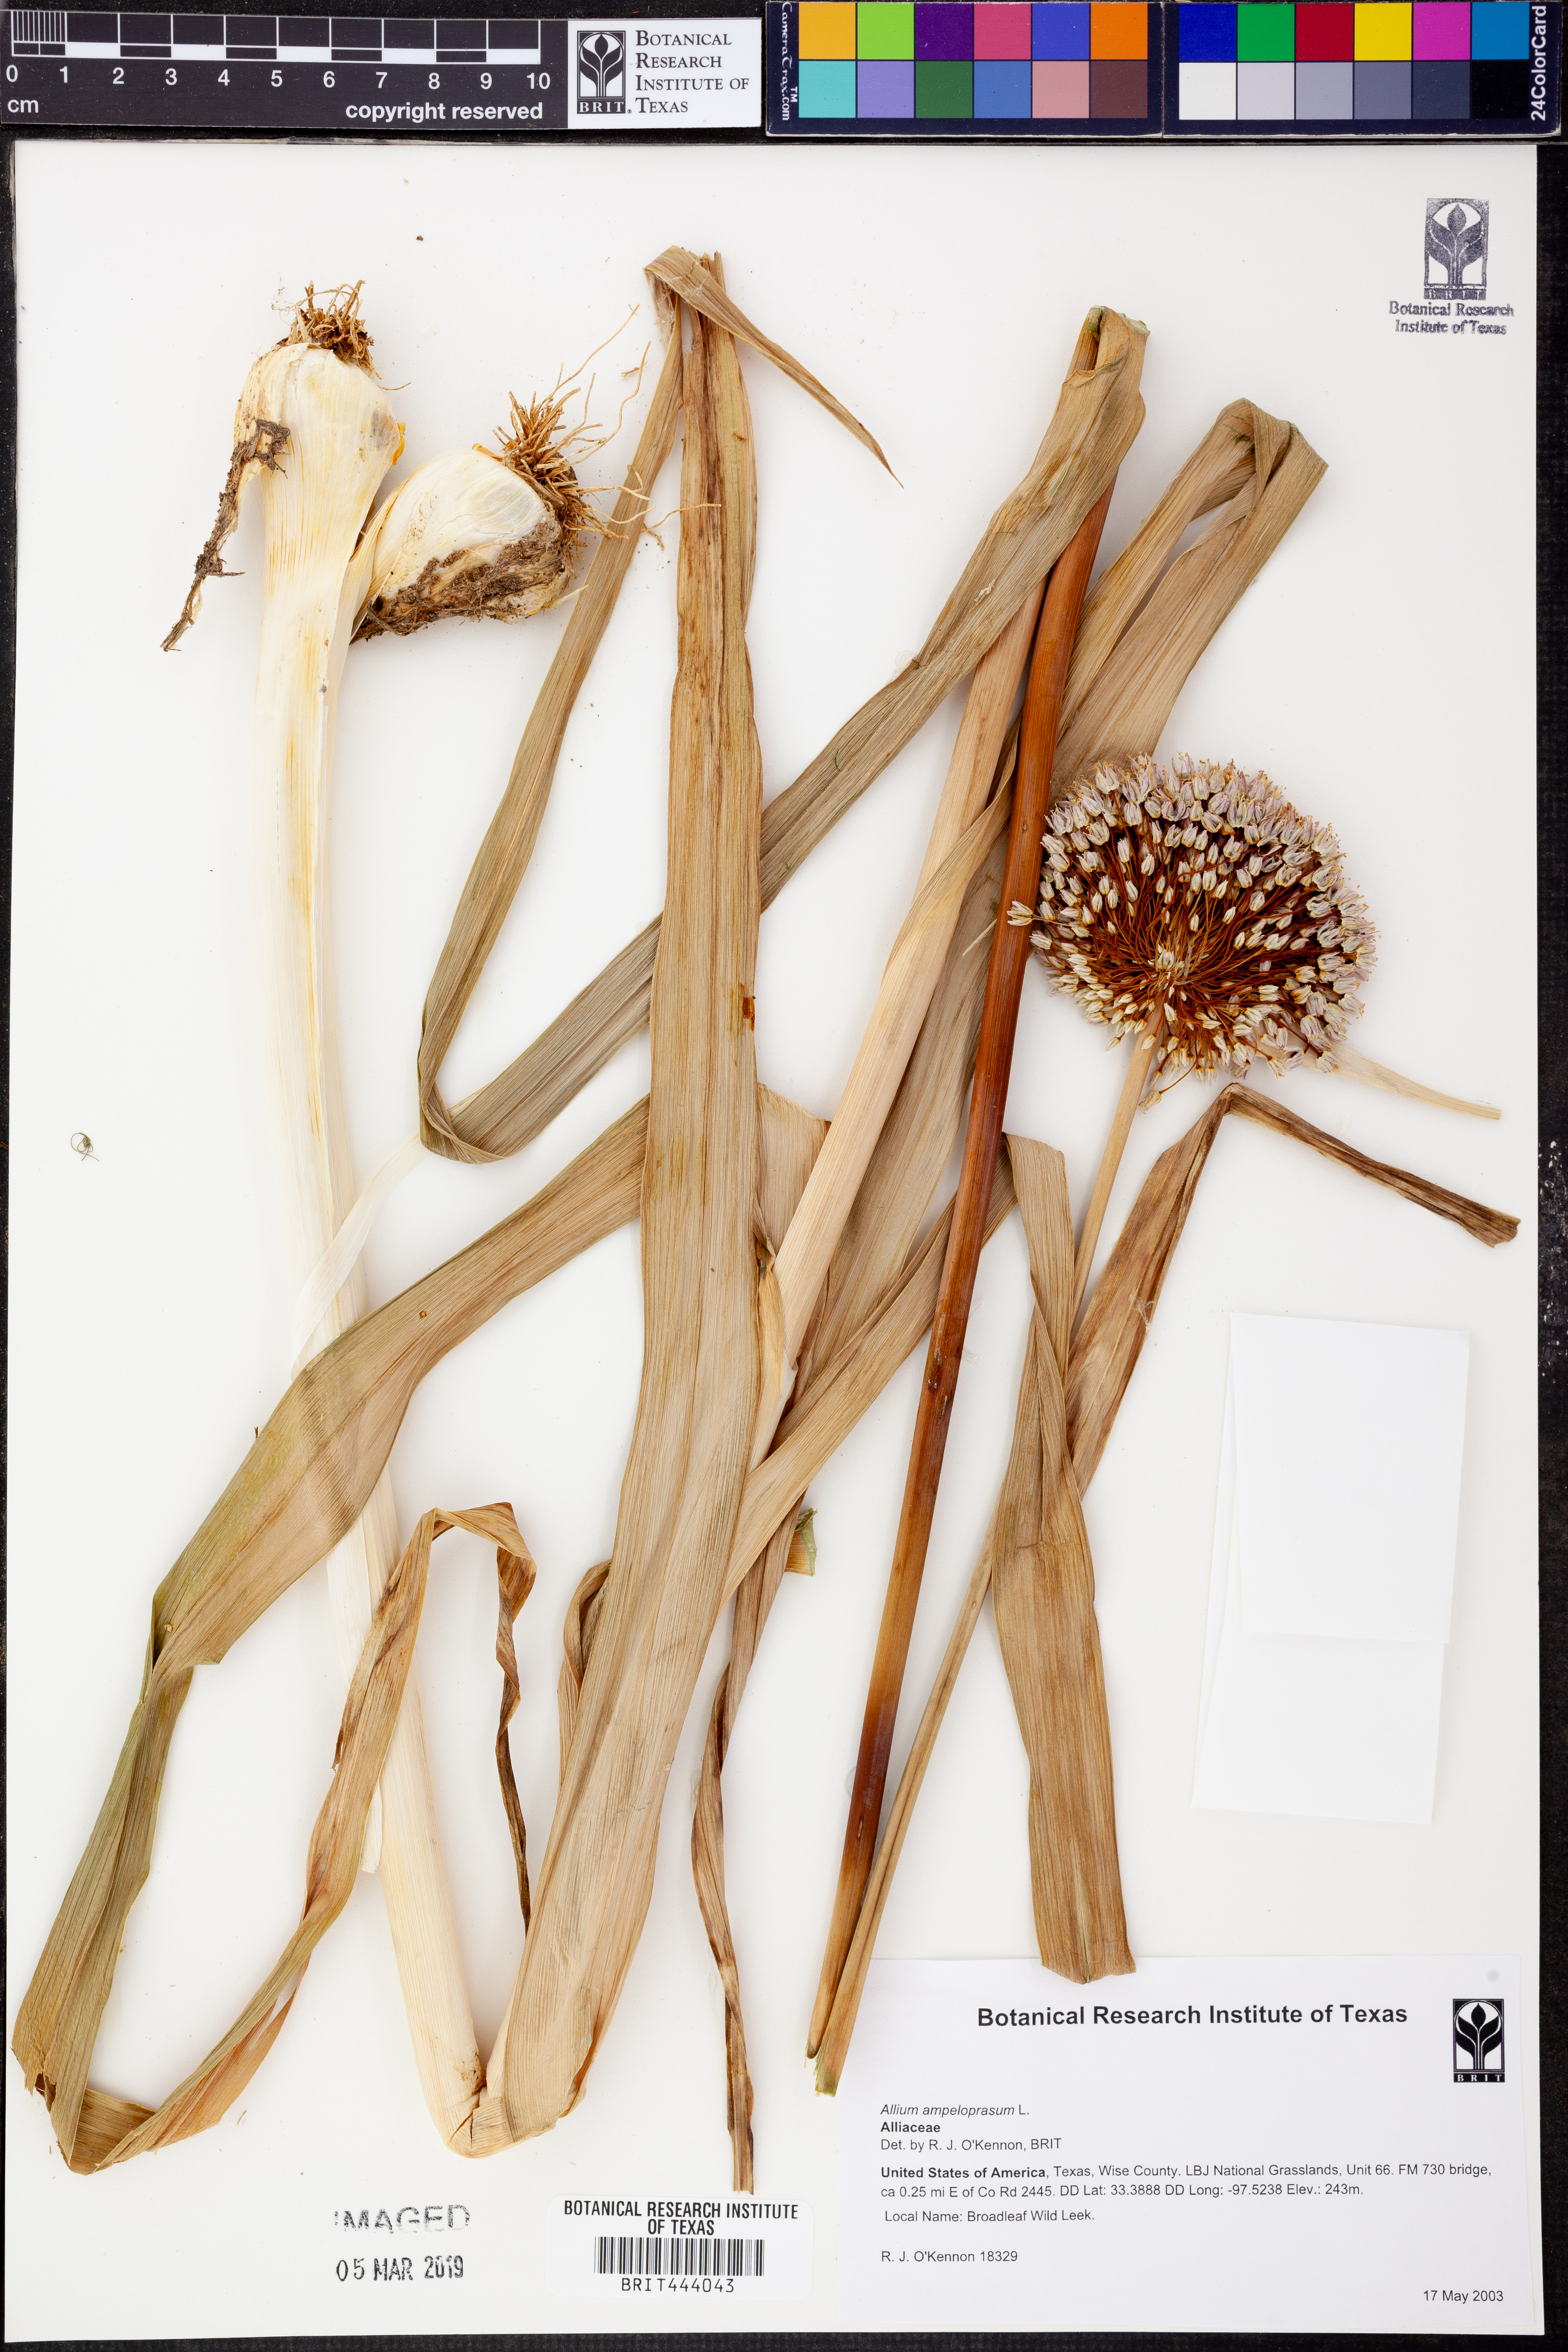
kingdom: Plantae
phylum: Tracheophyta
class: Liliopsida
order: Asparagales
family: Amaryllidaceae
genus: Allium
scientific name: Allium ampeloprasum
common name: Wild leek
